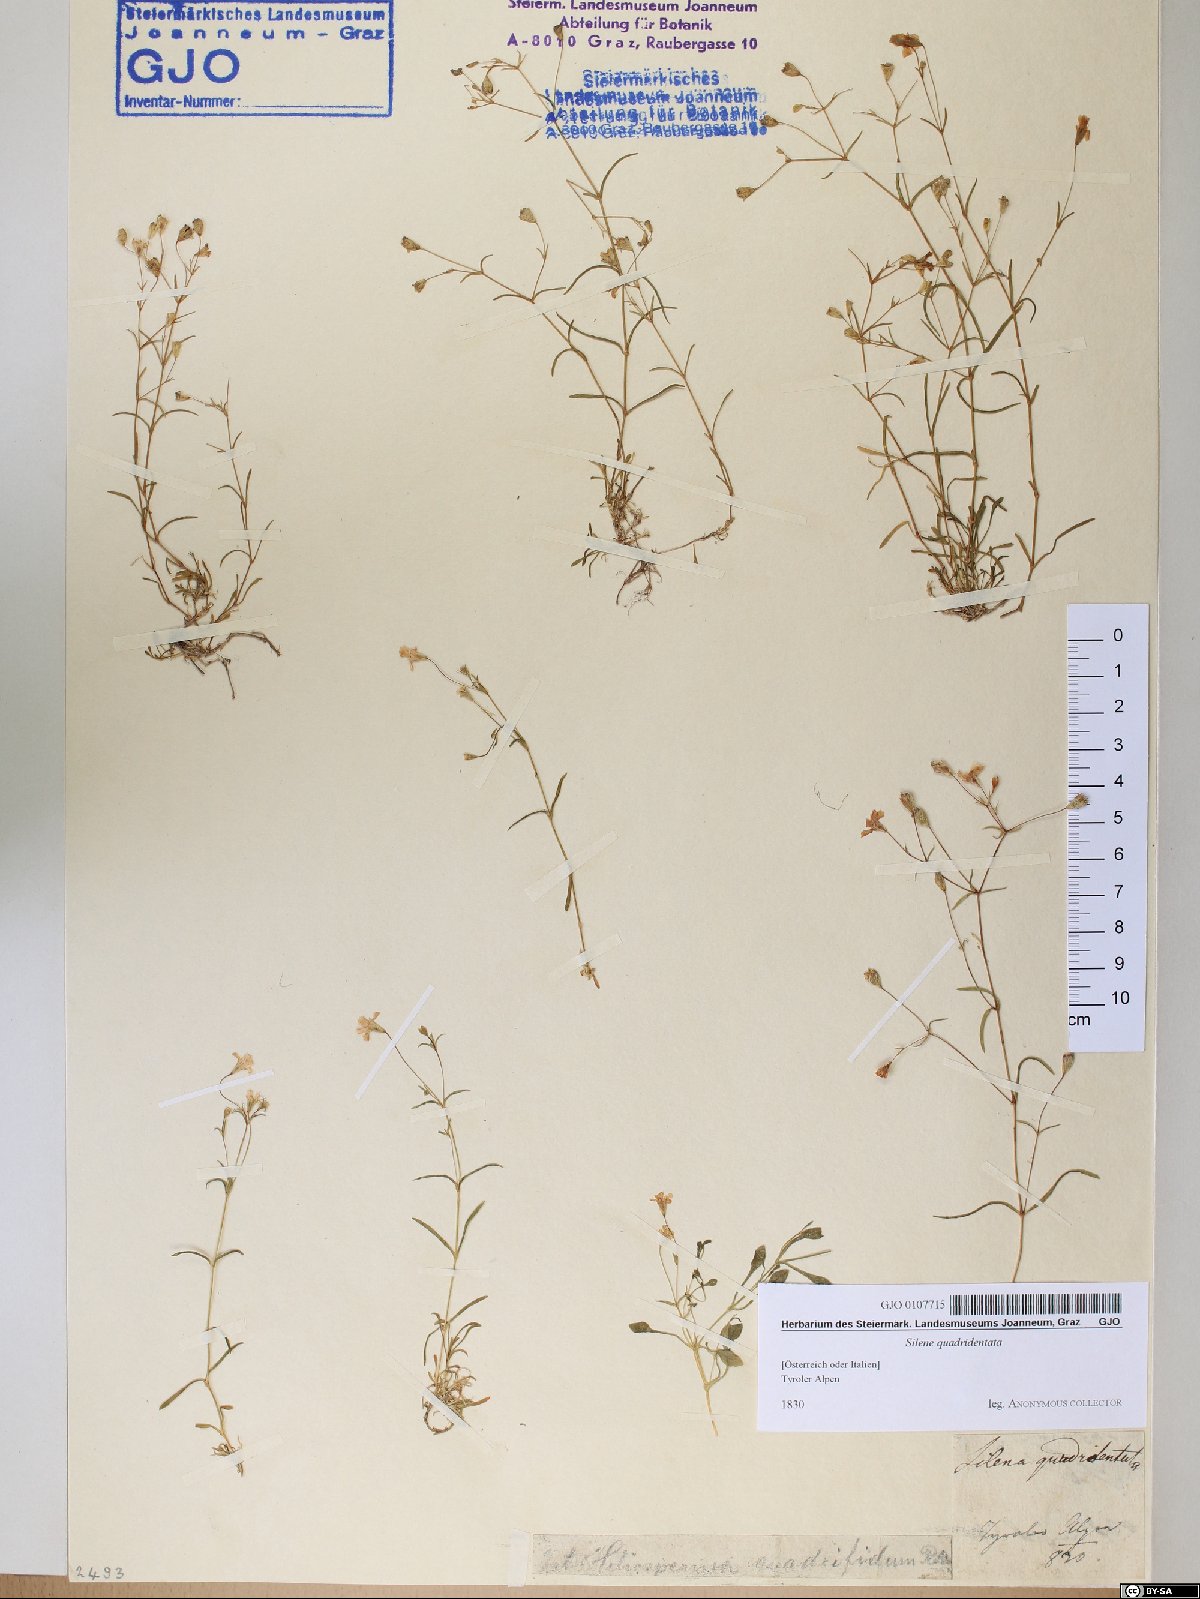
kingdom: Plantae
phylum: Tracheophyta
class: Magnoliopsida
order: Caryophyllales
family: Caryophyllaceae
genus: Heliosperma
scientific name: Heliosperma alpestre
